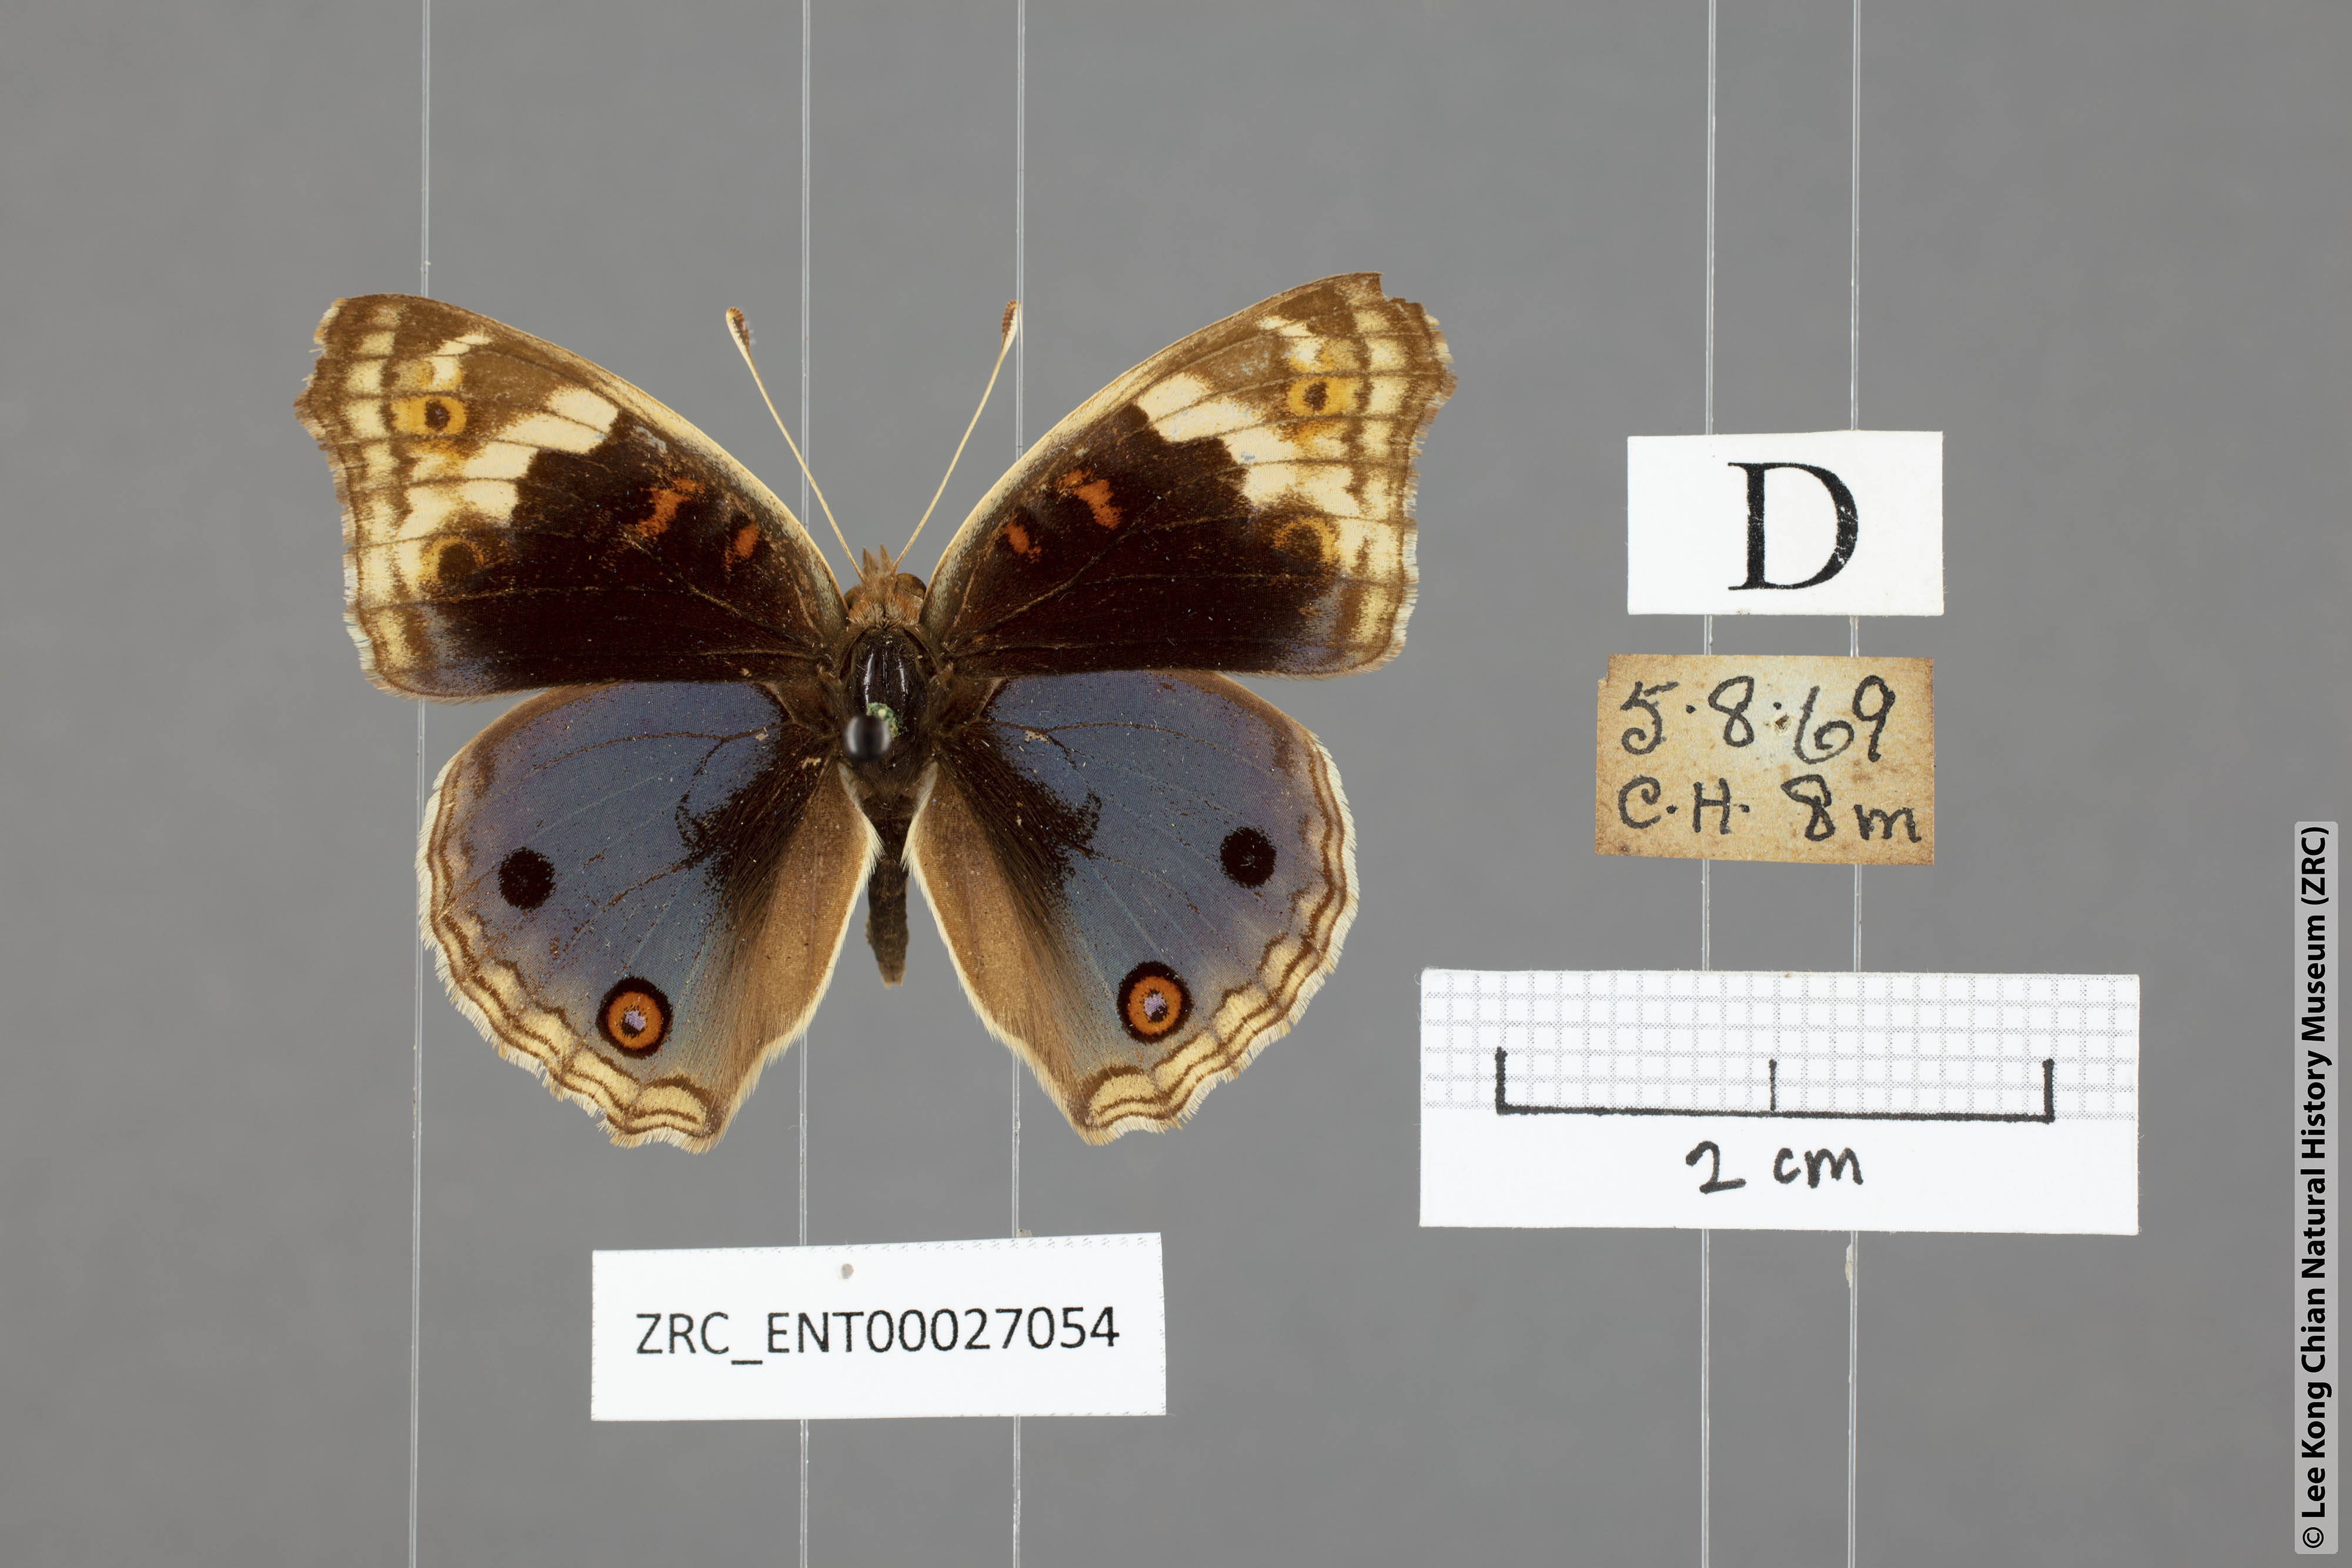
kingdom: Animalia
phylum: Arthropoda
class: Insecta
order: Lepidoptera
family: Nymphalidae
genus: Junonia
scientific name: Junonia orithya
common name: Blue pansy
